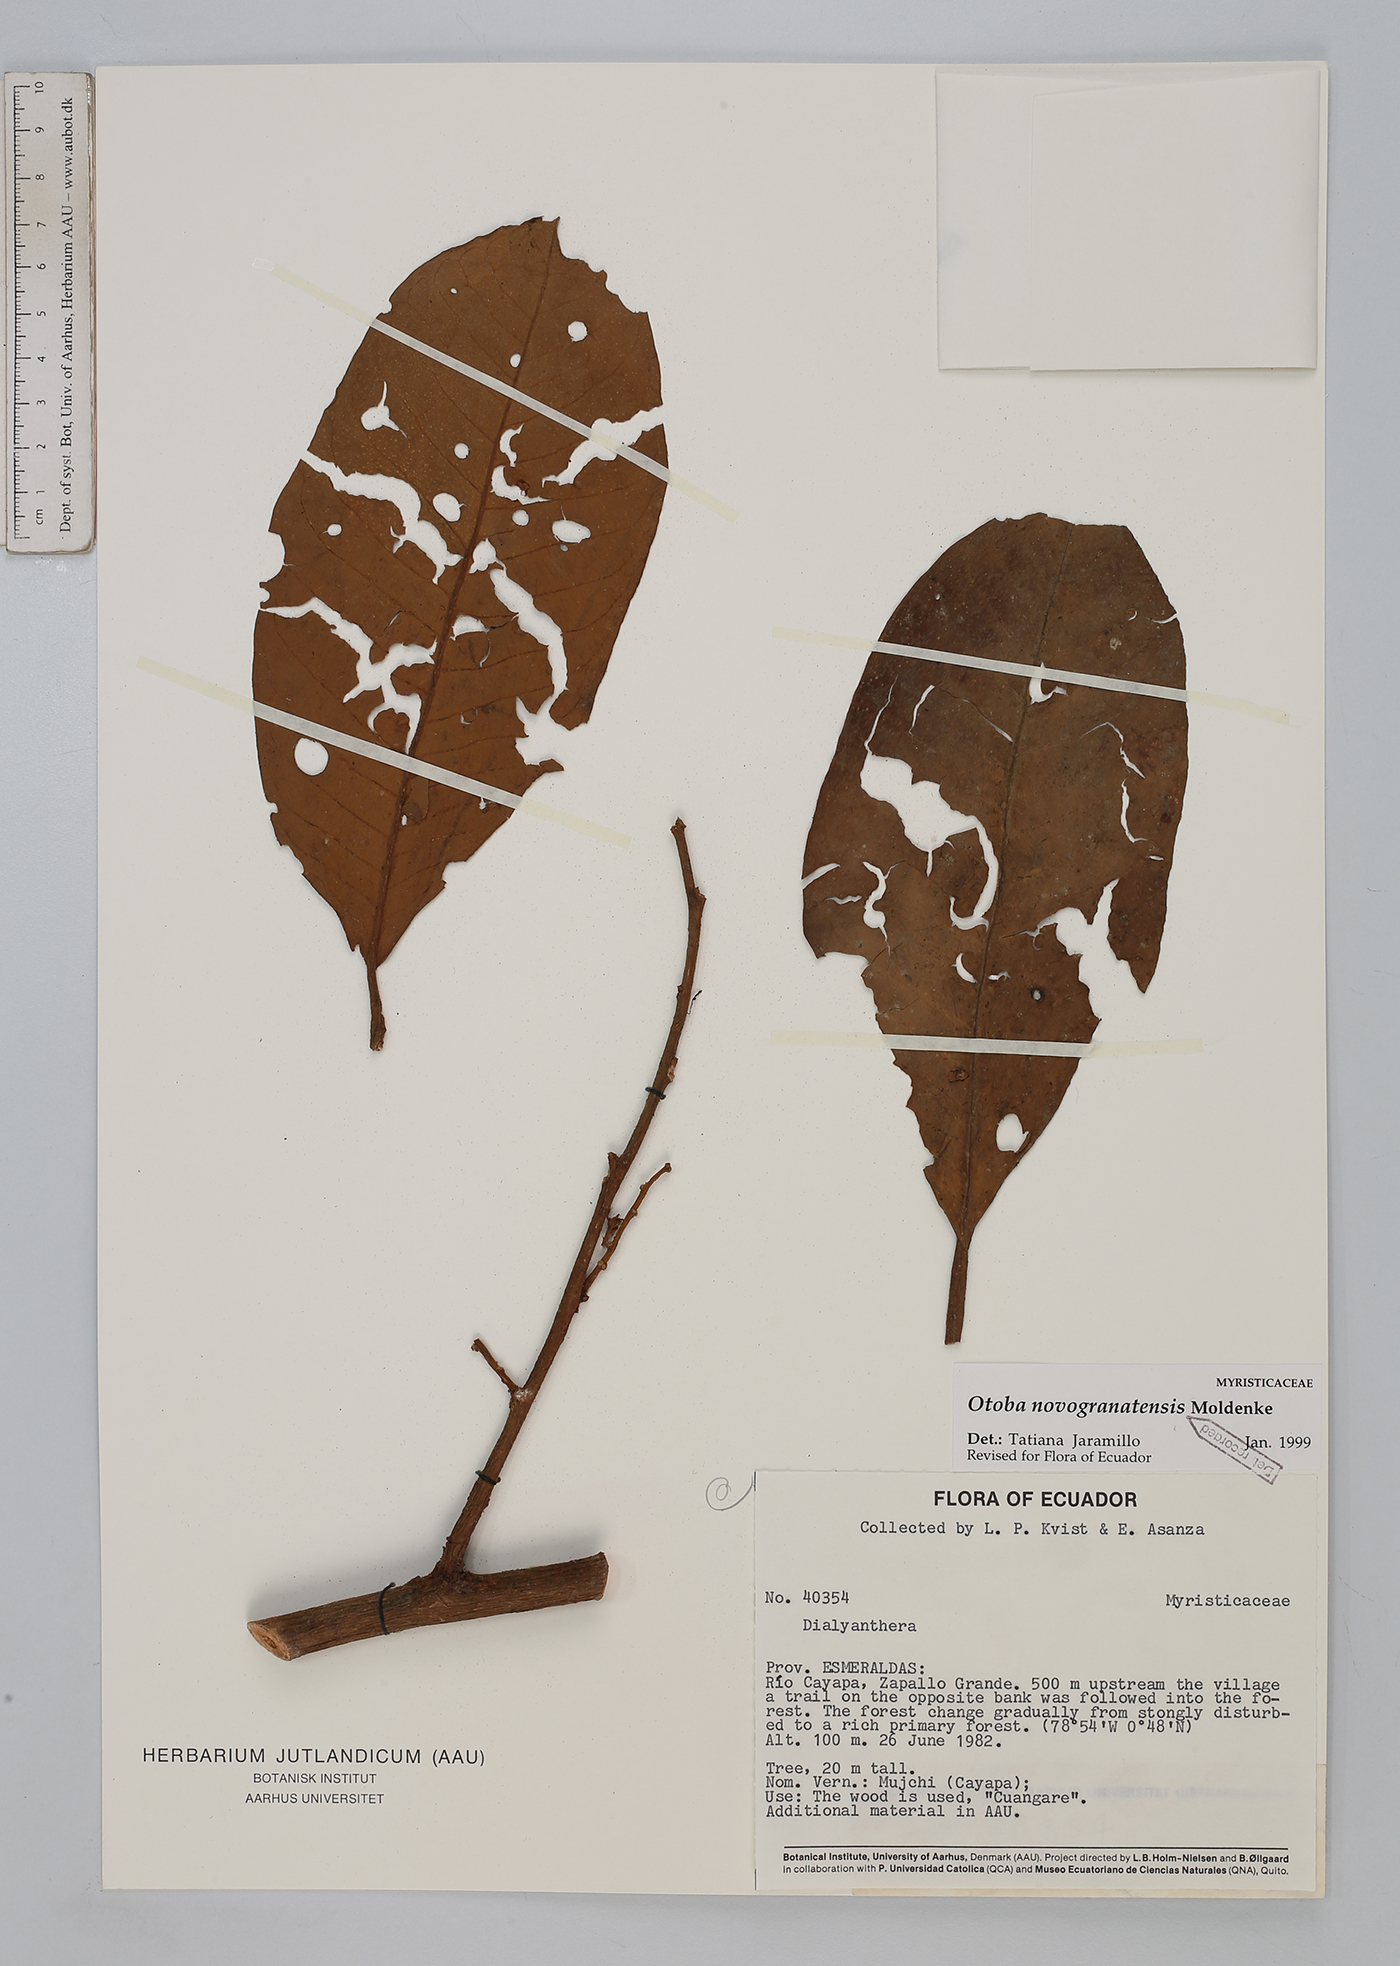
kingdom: Plantae
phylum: Tracheophyta
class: Magnoliopsida
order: Magnoliales
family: Myristicaceae
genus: Otoba
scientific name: Otoba novogranatensis
